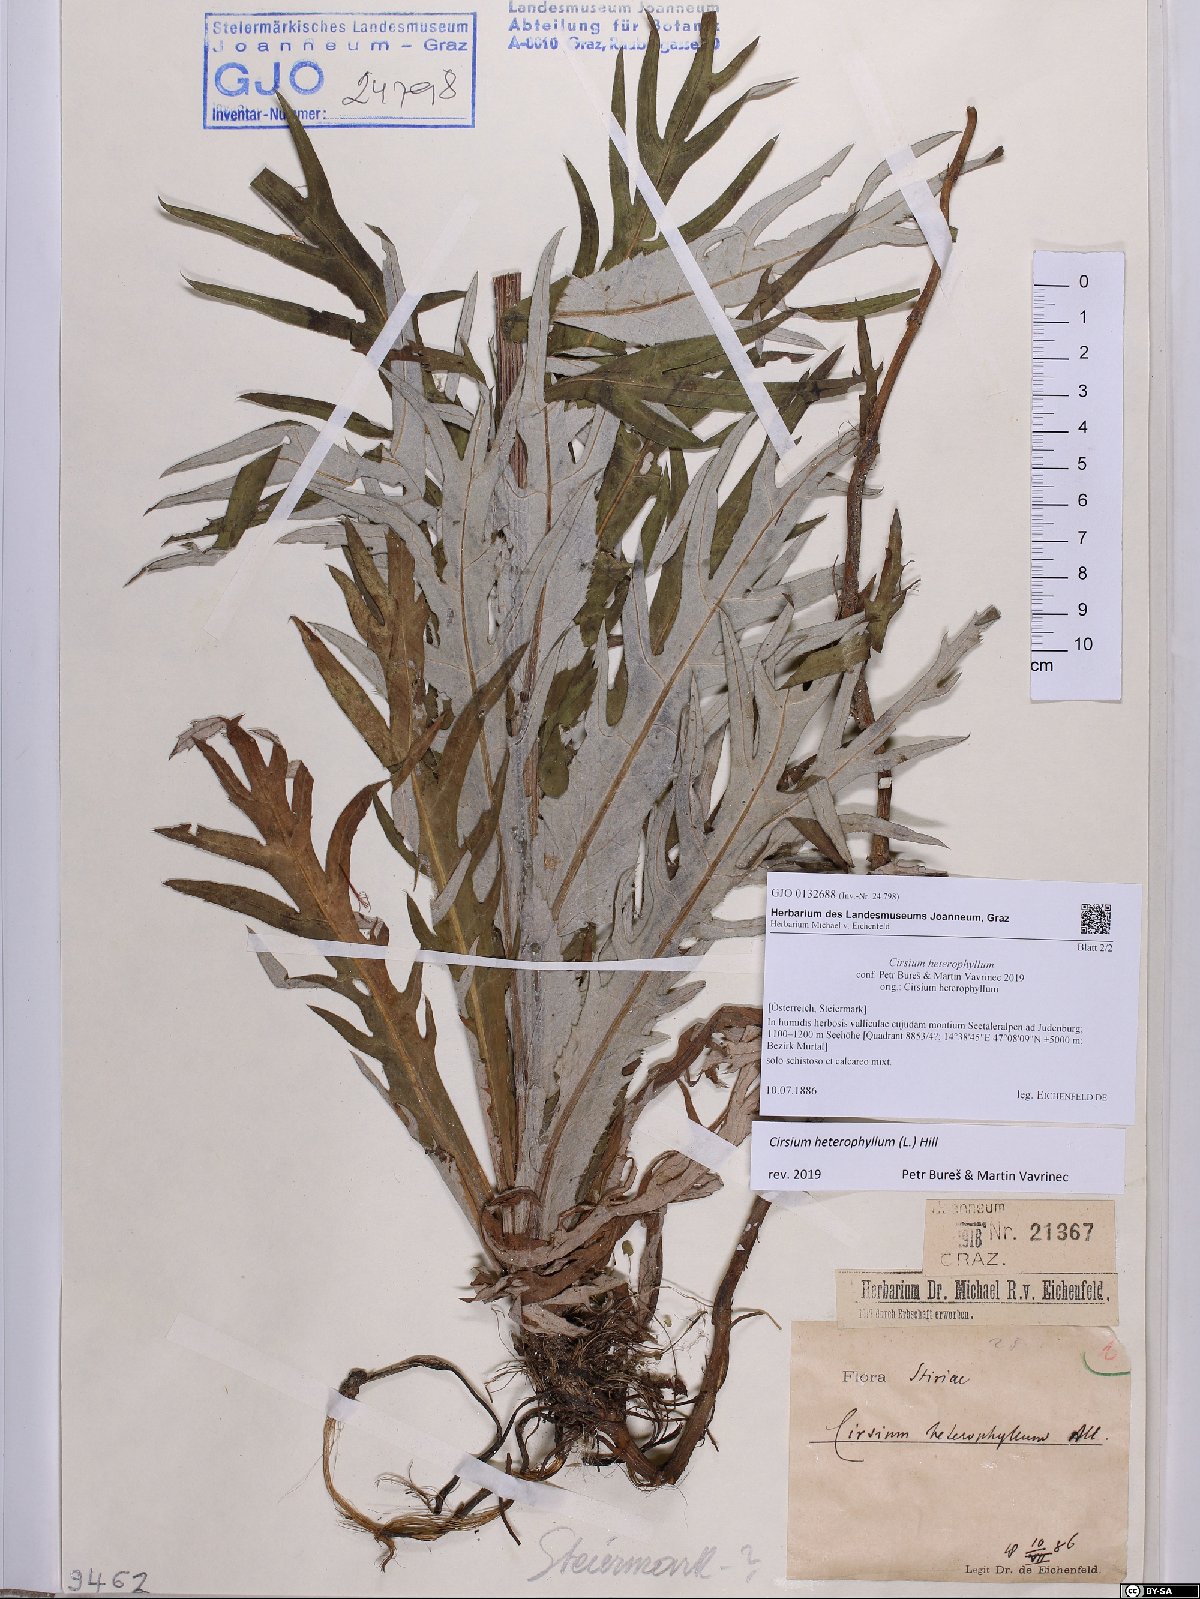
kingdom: Plantae
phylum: Tracheophyta
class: Magnoliopsida
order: Asterales
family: Asteraceae
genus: Cirsium
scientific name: Cirsium heterophyllum
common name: Melancholy thistle
